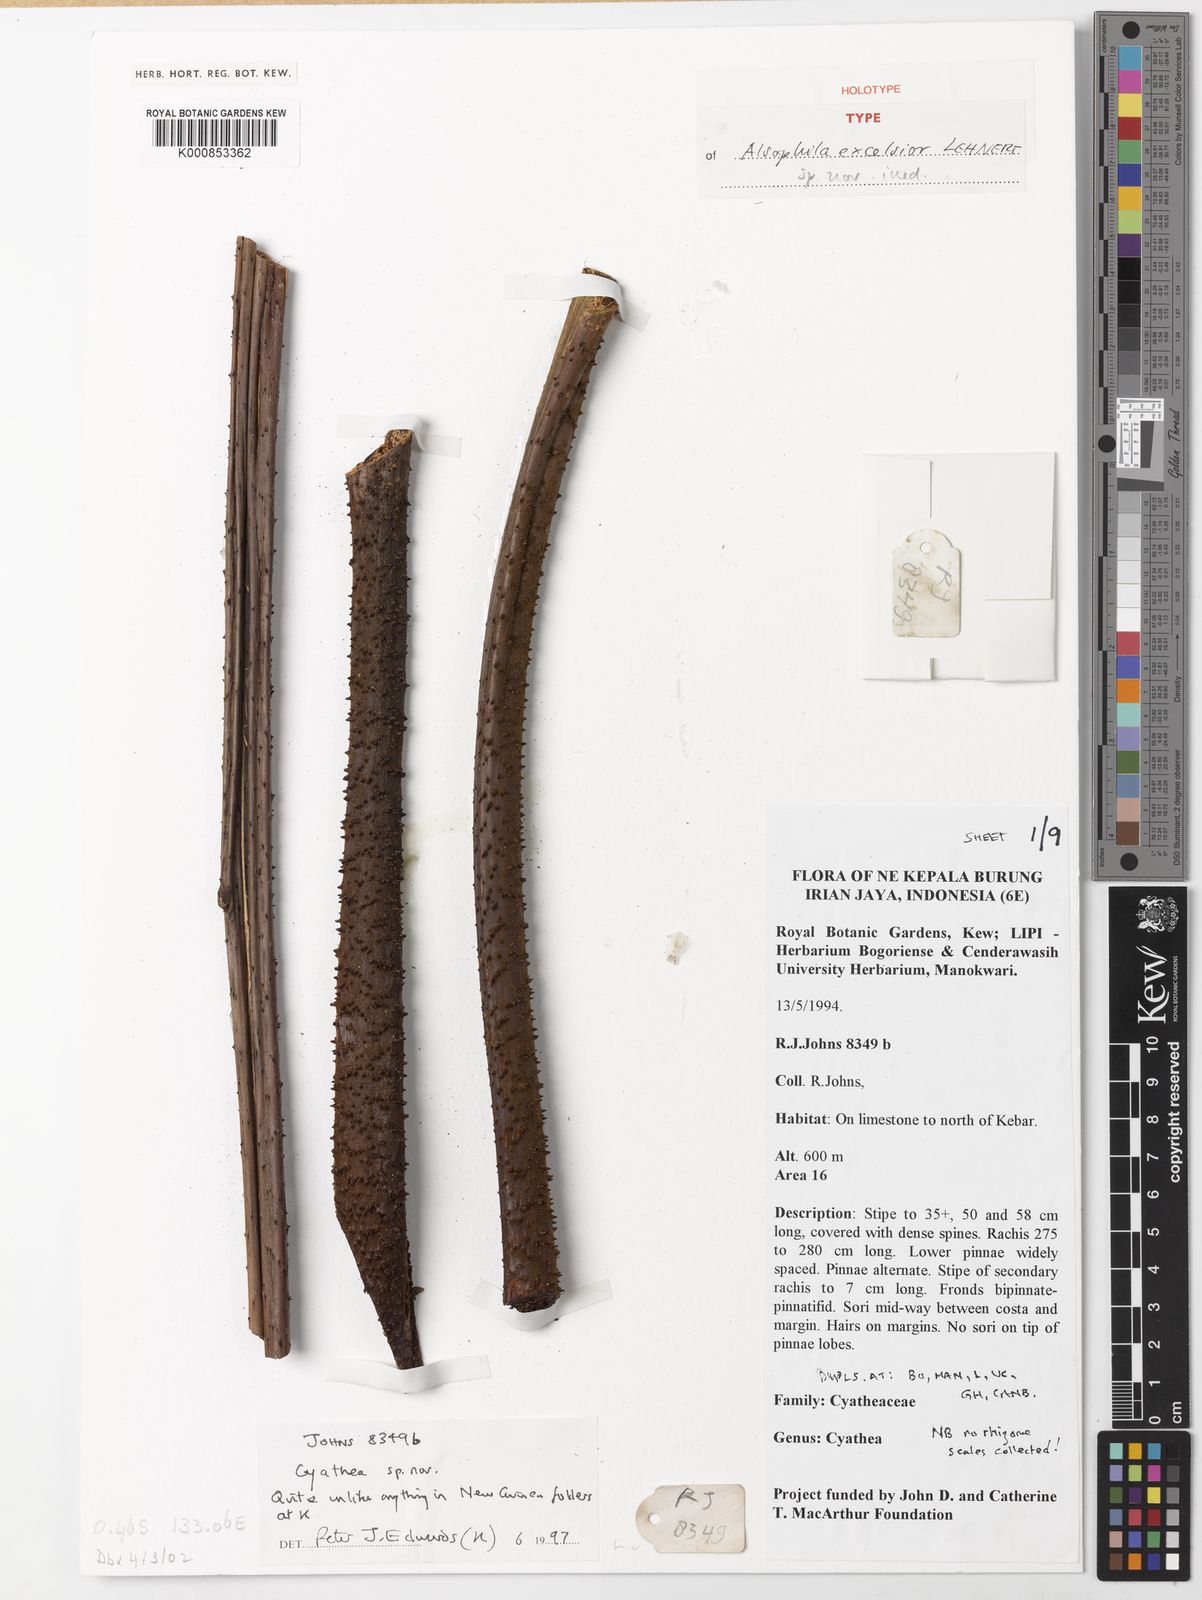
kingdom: Plantae
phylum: Tracheophyta
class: Polypodiopsida
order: Cyatheales
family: Cyatheaceae
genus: Alsophila
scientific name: Alsophila excelsior
